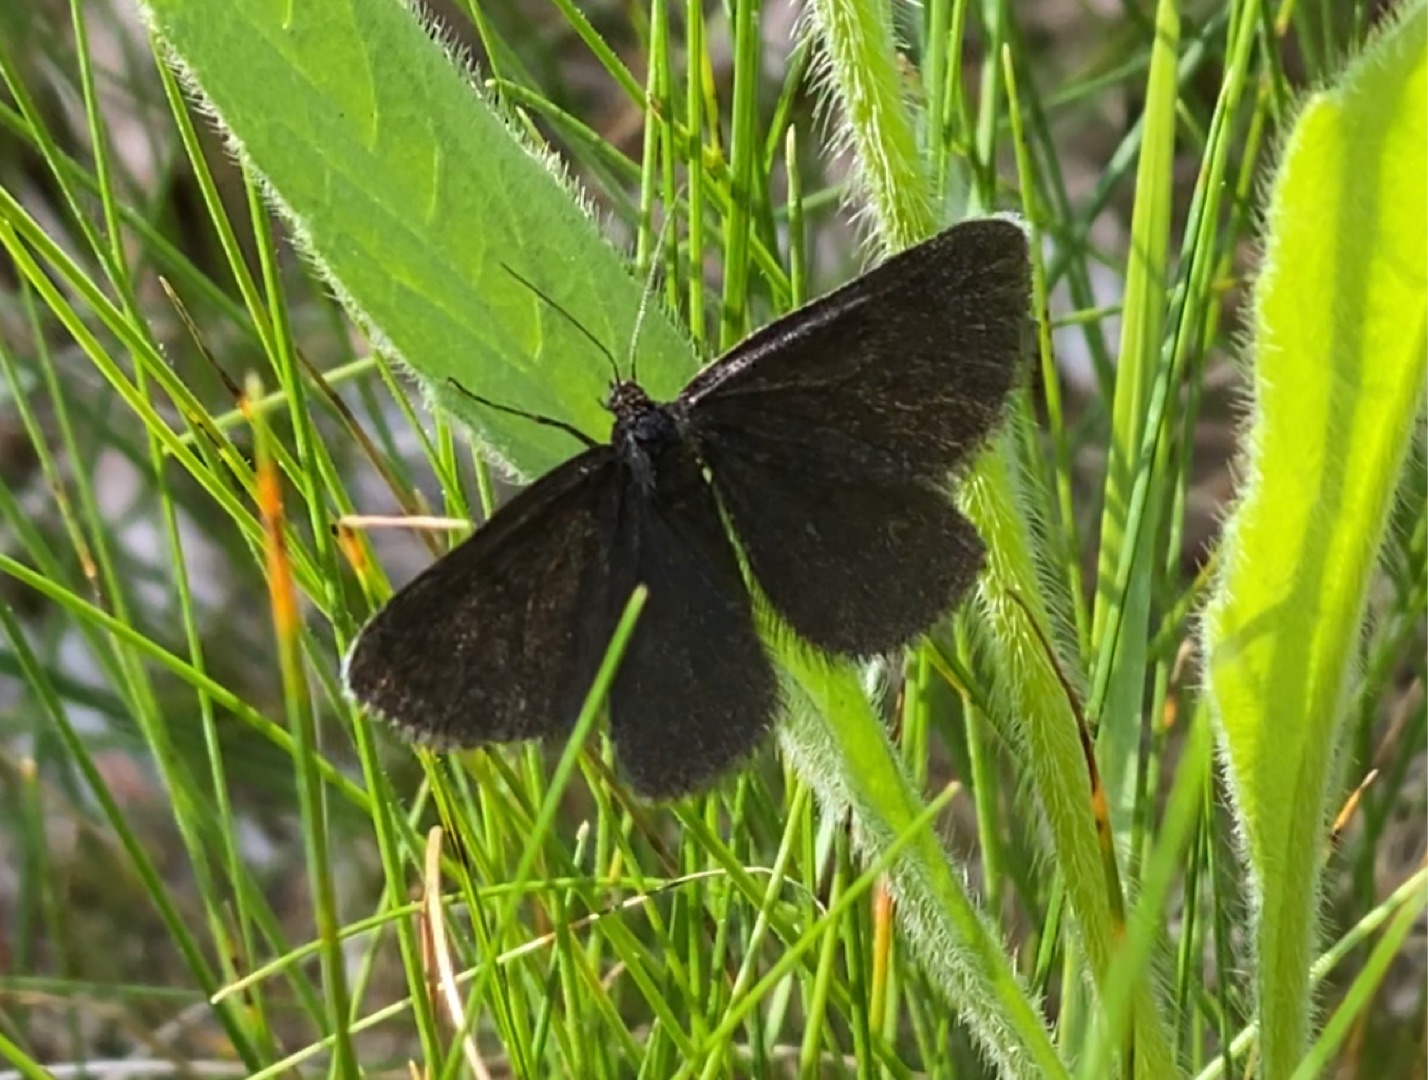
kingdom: Animalia
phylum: Arthropoda
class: Insecta
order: Lepidoptera
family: Geometridae
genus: Odezia
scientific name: Odezia atrata
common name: Sort måler
